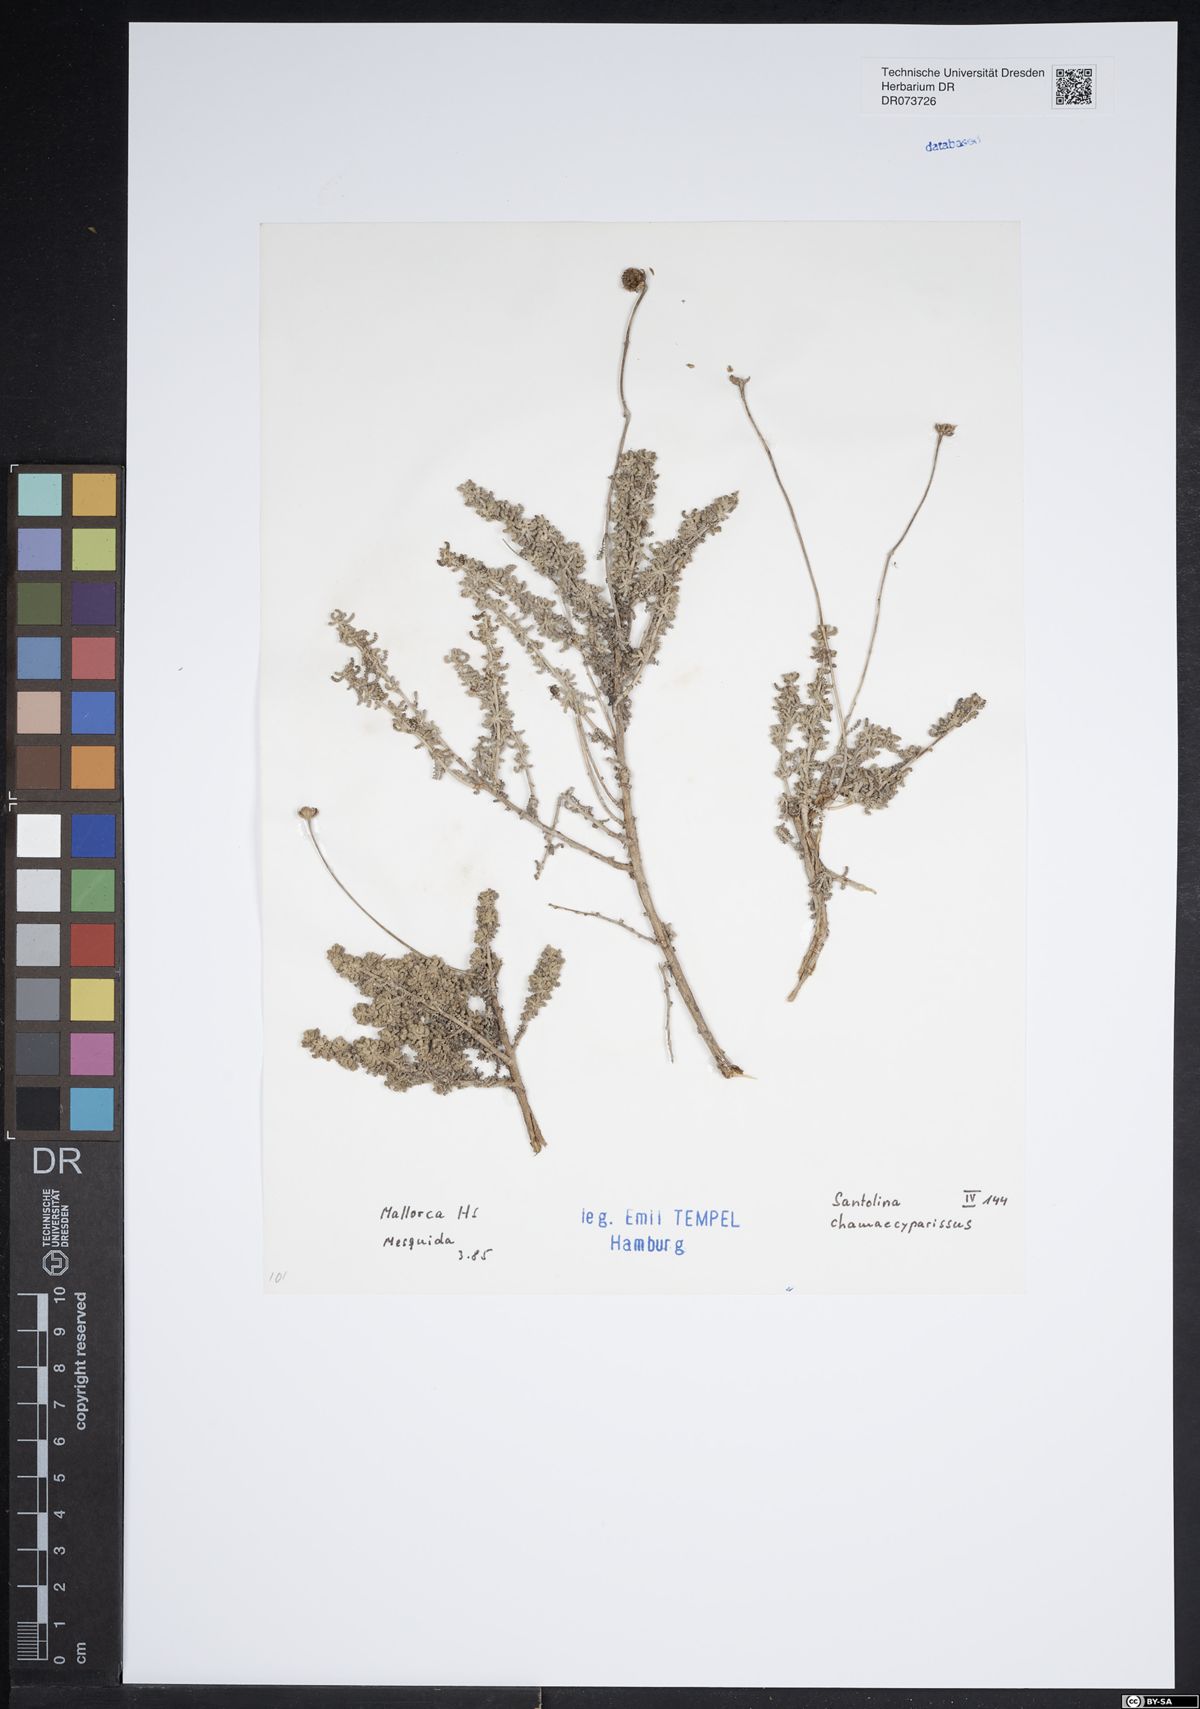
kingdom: Plantae
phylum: Tracheophyta
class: Magnoliopsida
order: Asterales
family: Asteraceae
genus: Santolina
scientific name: Santolina chamaecyparissus
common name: Lavender-cotton
